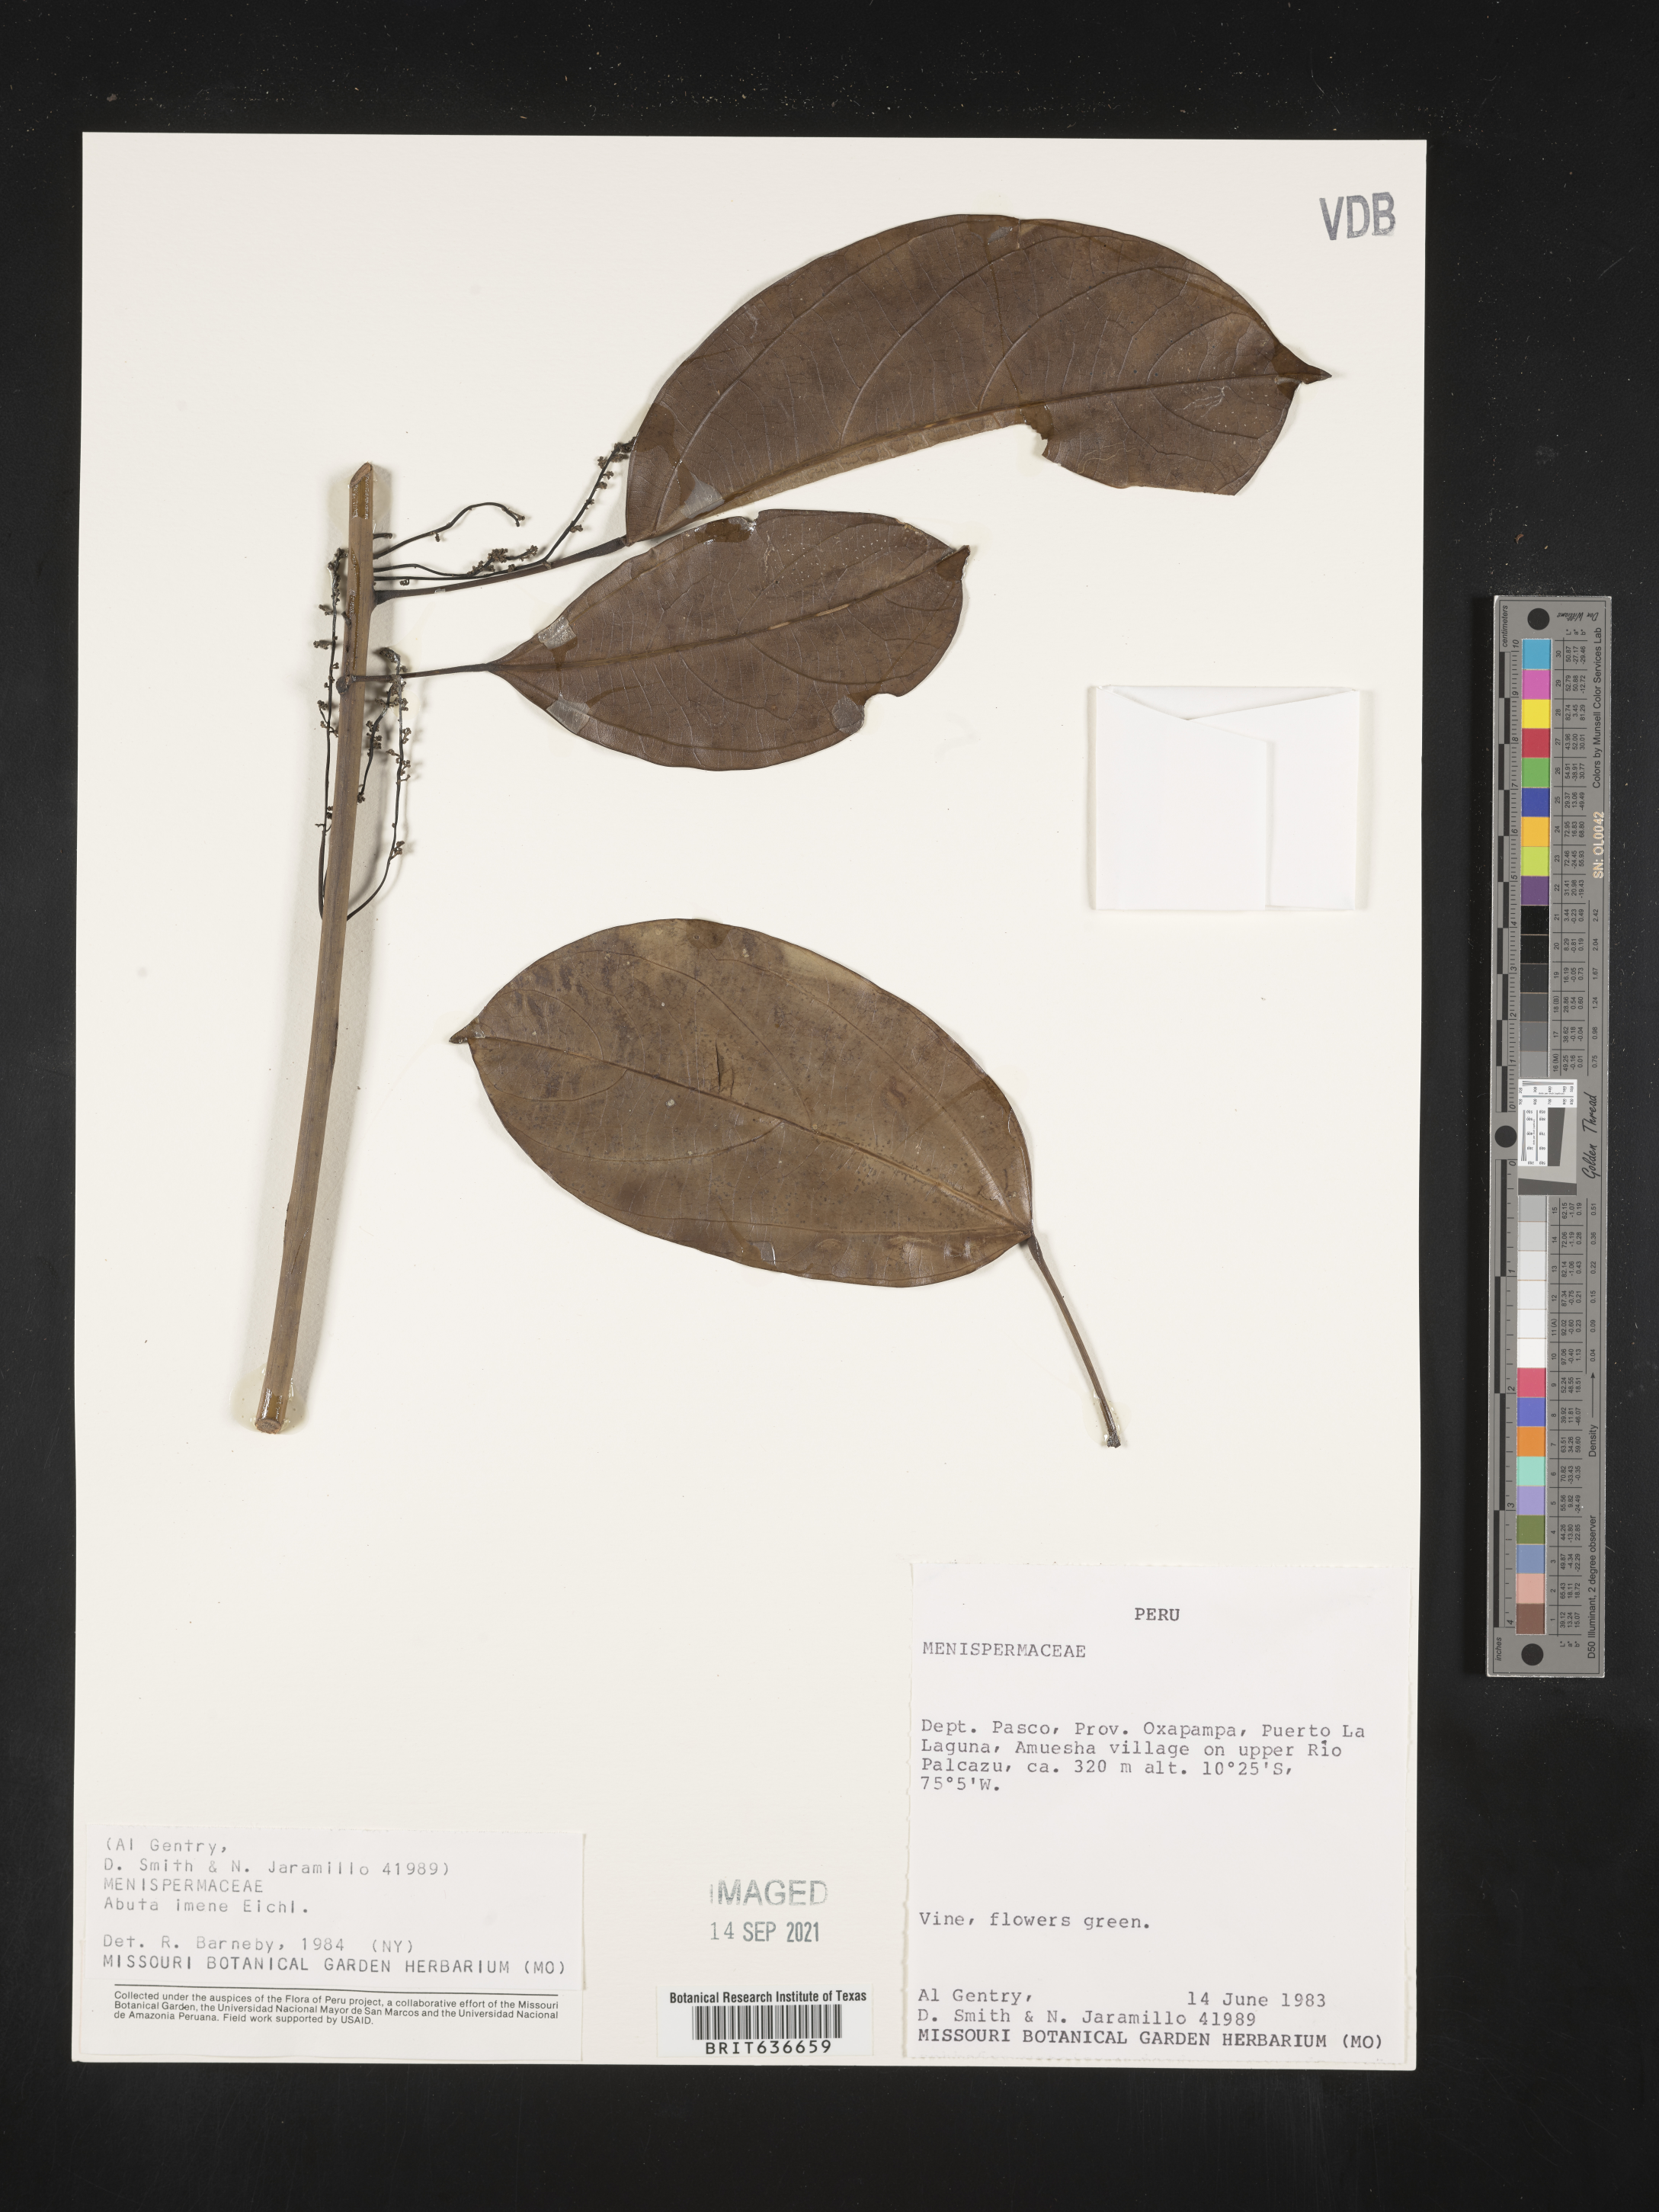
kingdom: Plantae
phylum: Tracheophyta
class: Magnoliopsida
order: Ranunculales
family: Menispermaceae
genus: Abuta
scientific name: Abuta
